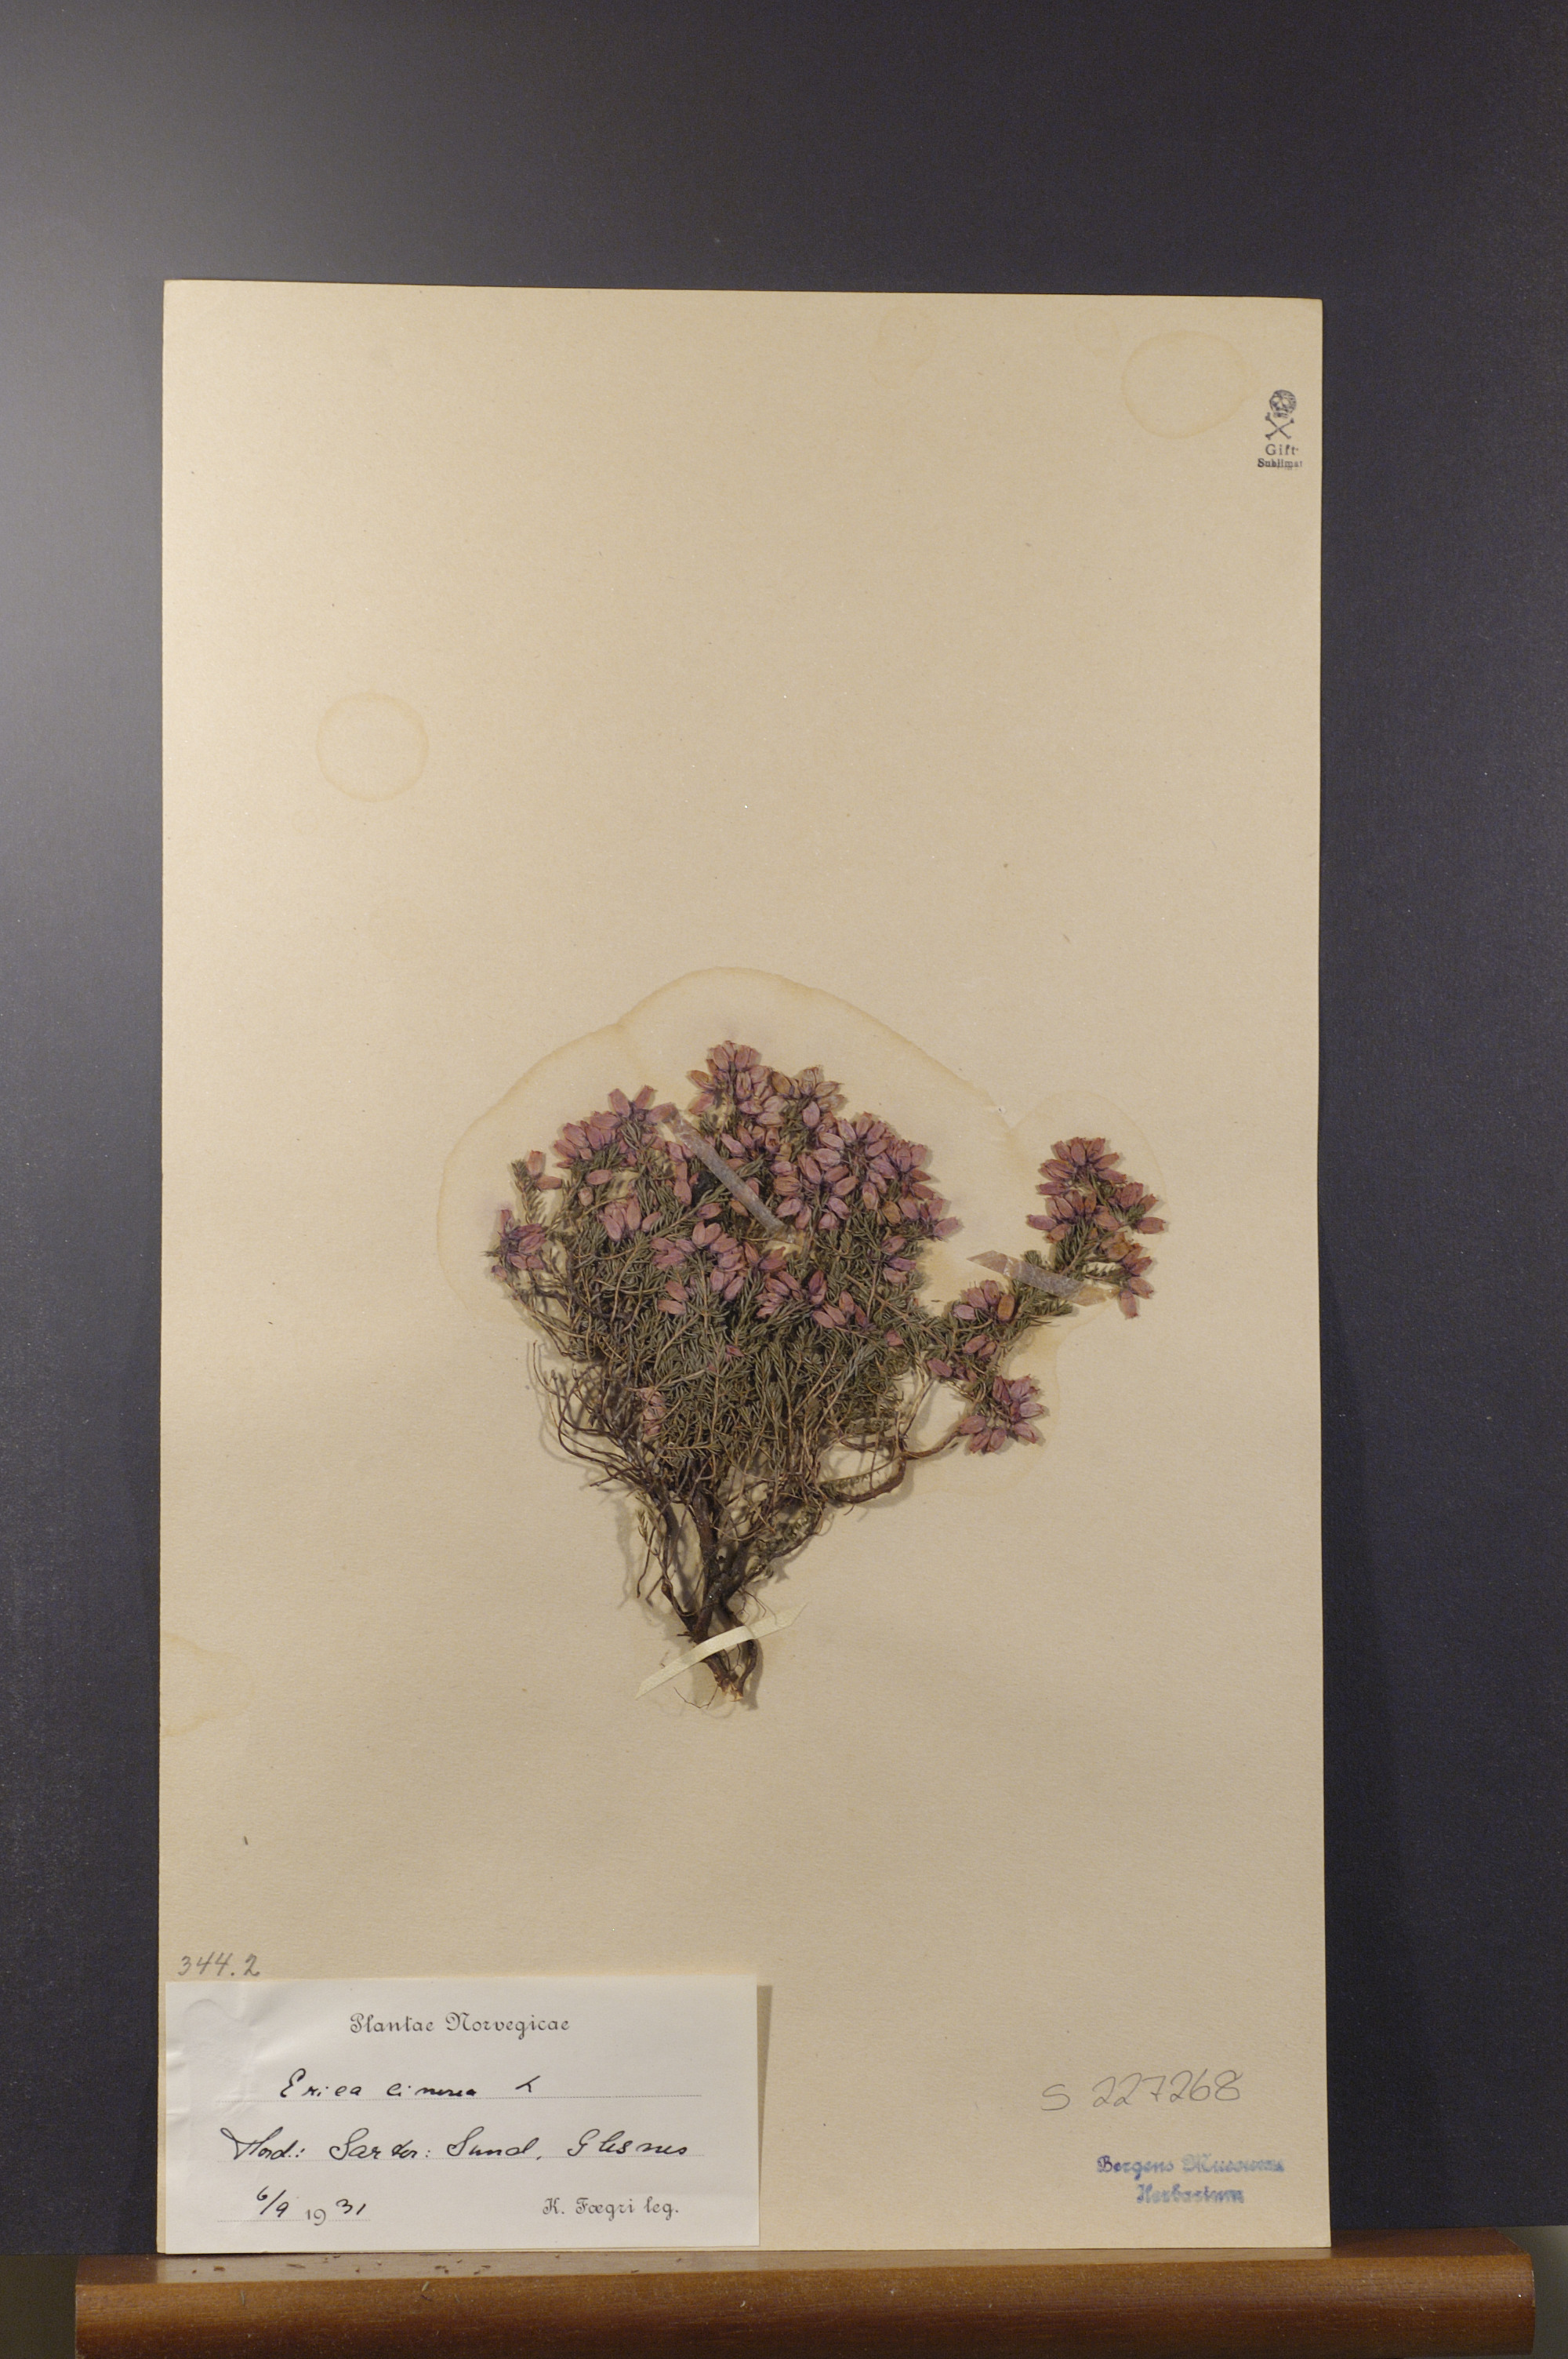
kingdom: Plantae
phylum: Tracheophyta
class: Magnoliopsida
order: Ericales
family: Ericaceae
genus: Erica
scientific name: Erica cinerea
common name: Bell heather
